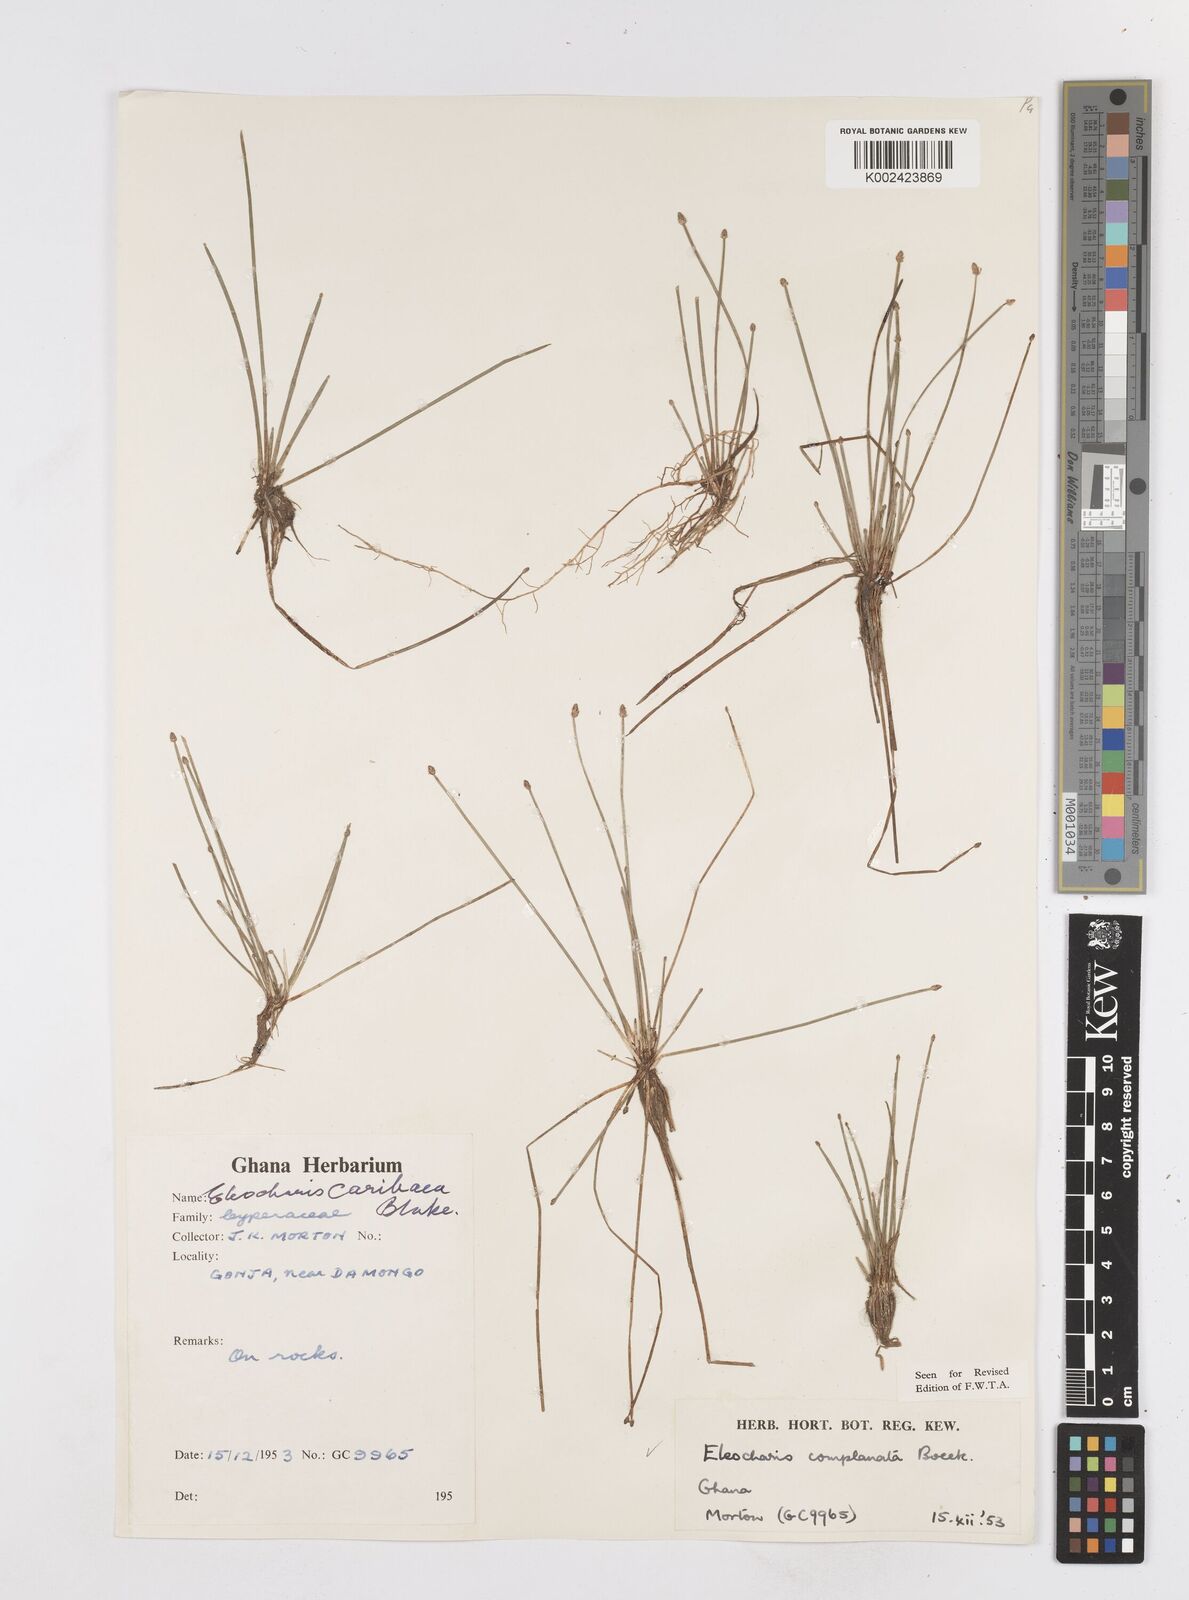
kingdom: Plantae
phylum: Tracheophyta
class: Liliopsida
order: Poales
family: Cyperaceae
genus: Eleocharis
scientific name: Eleocharis complanata
